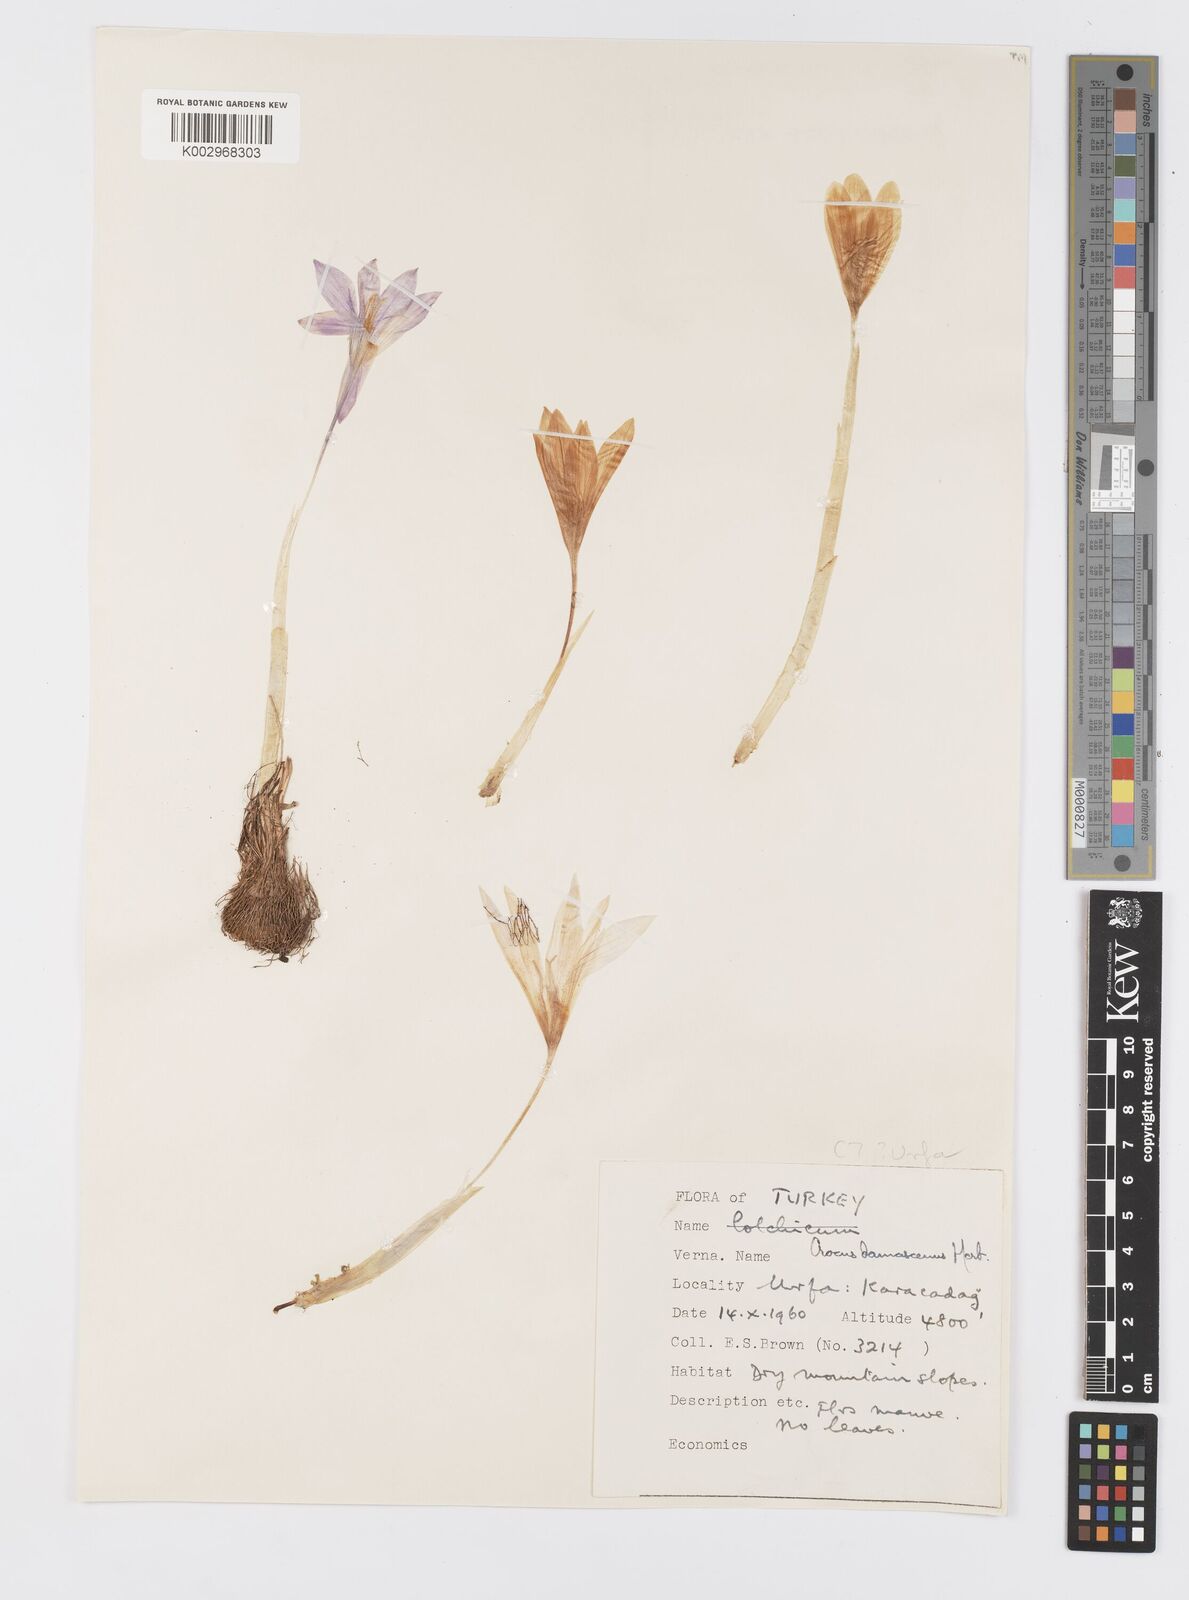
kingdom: Plantae
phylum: Tracheophyta
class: Liliopsida
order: Asparagales
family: Iridaceae
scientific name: Iridaceae
